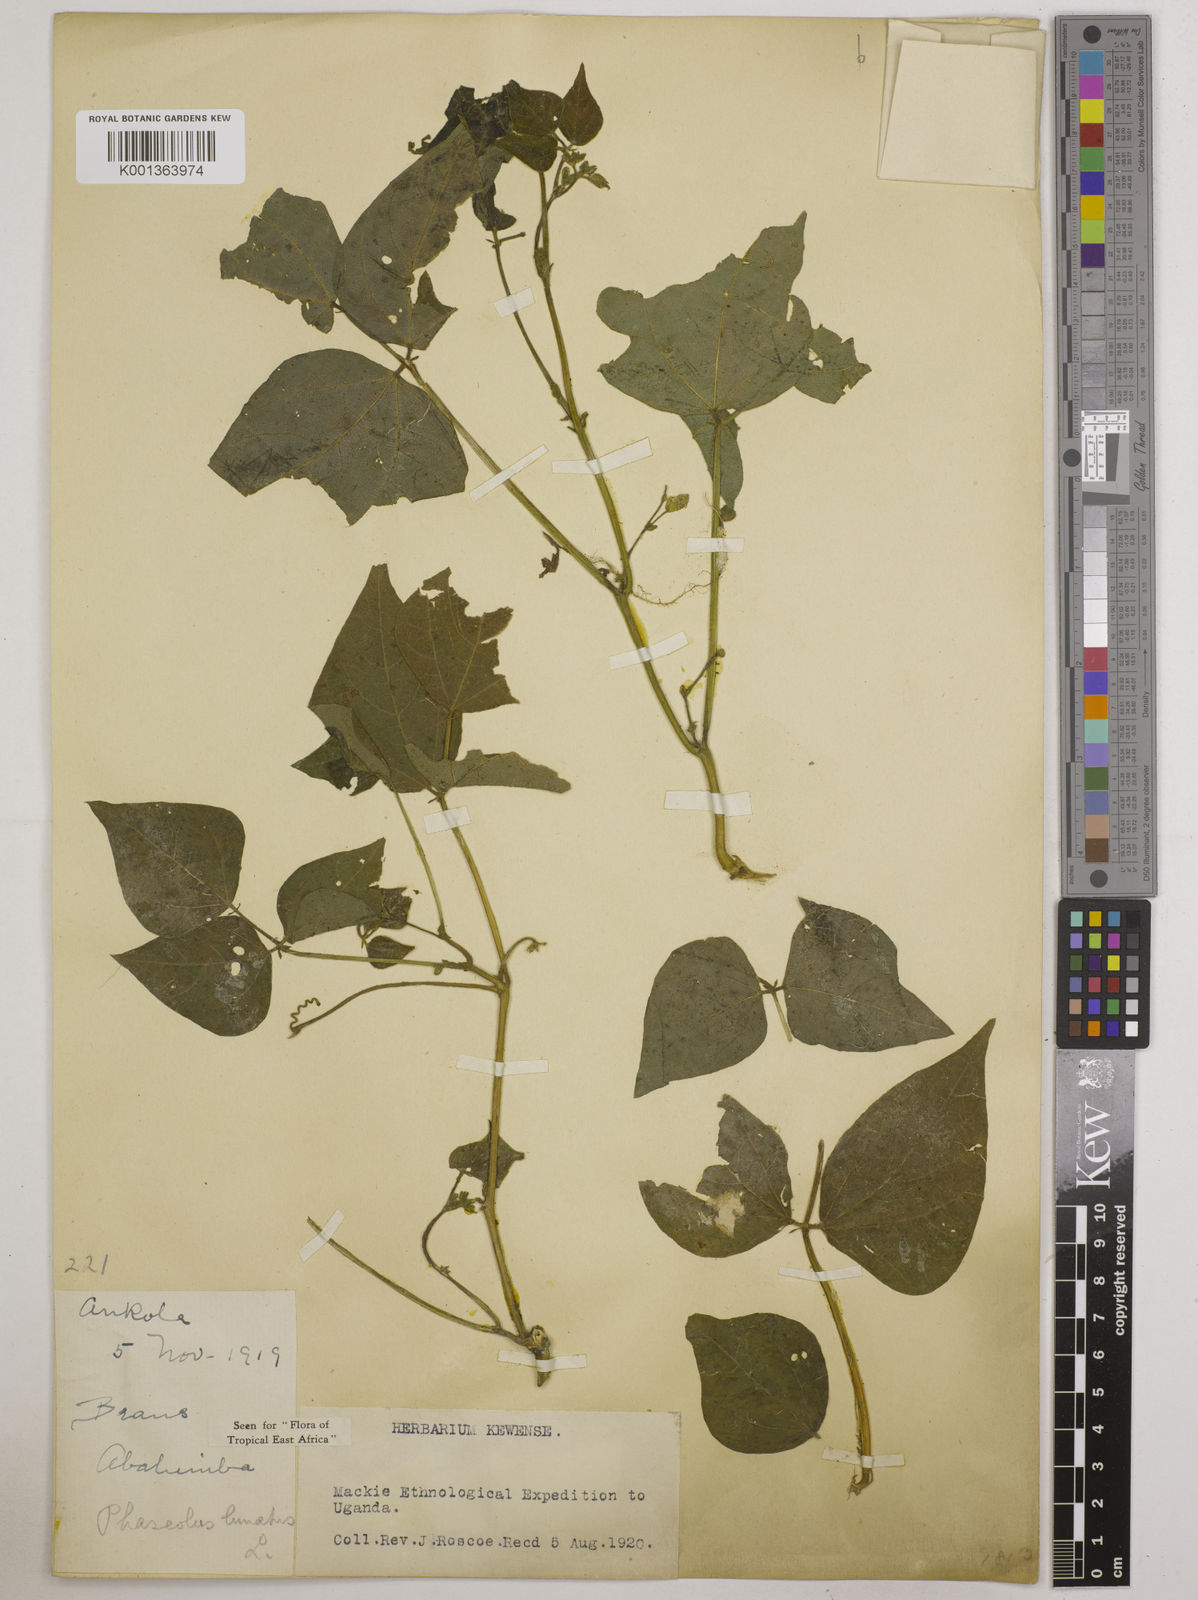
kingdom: Plantae
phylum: Tracheophyta
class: Magnoliopsida
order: Fabales
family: Fabaceae
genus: Phaseolus
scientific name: Phaseolus lunatus
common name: Sieva bean
